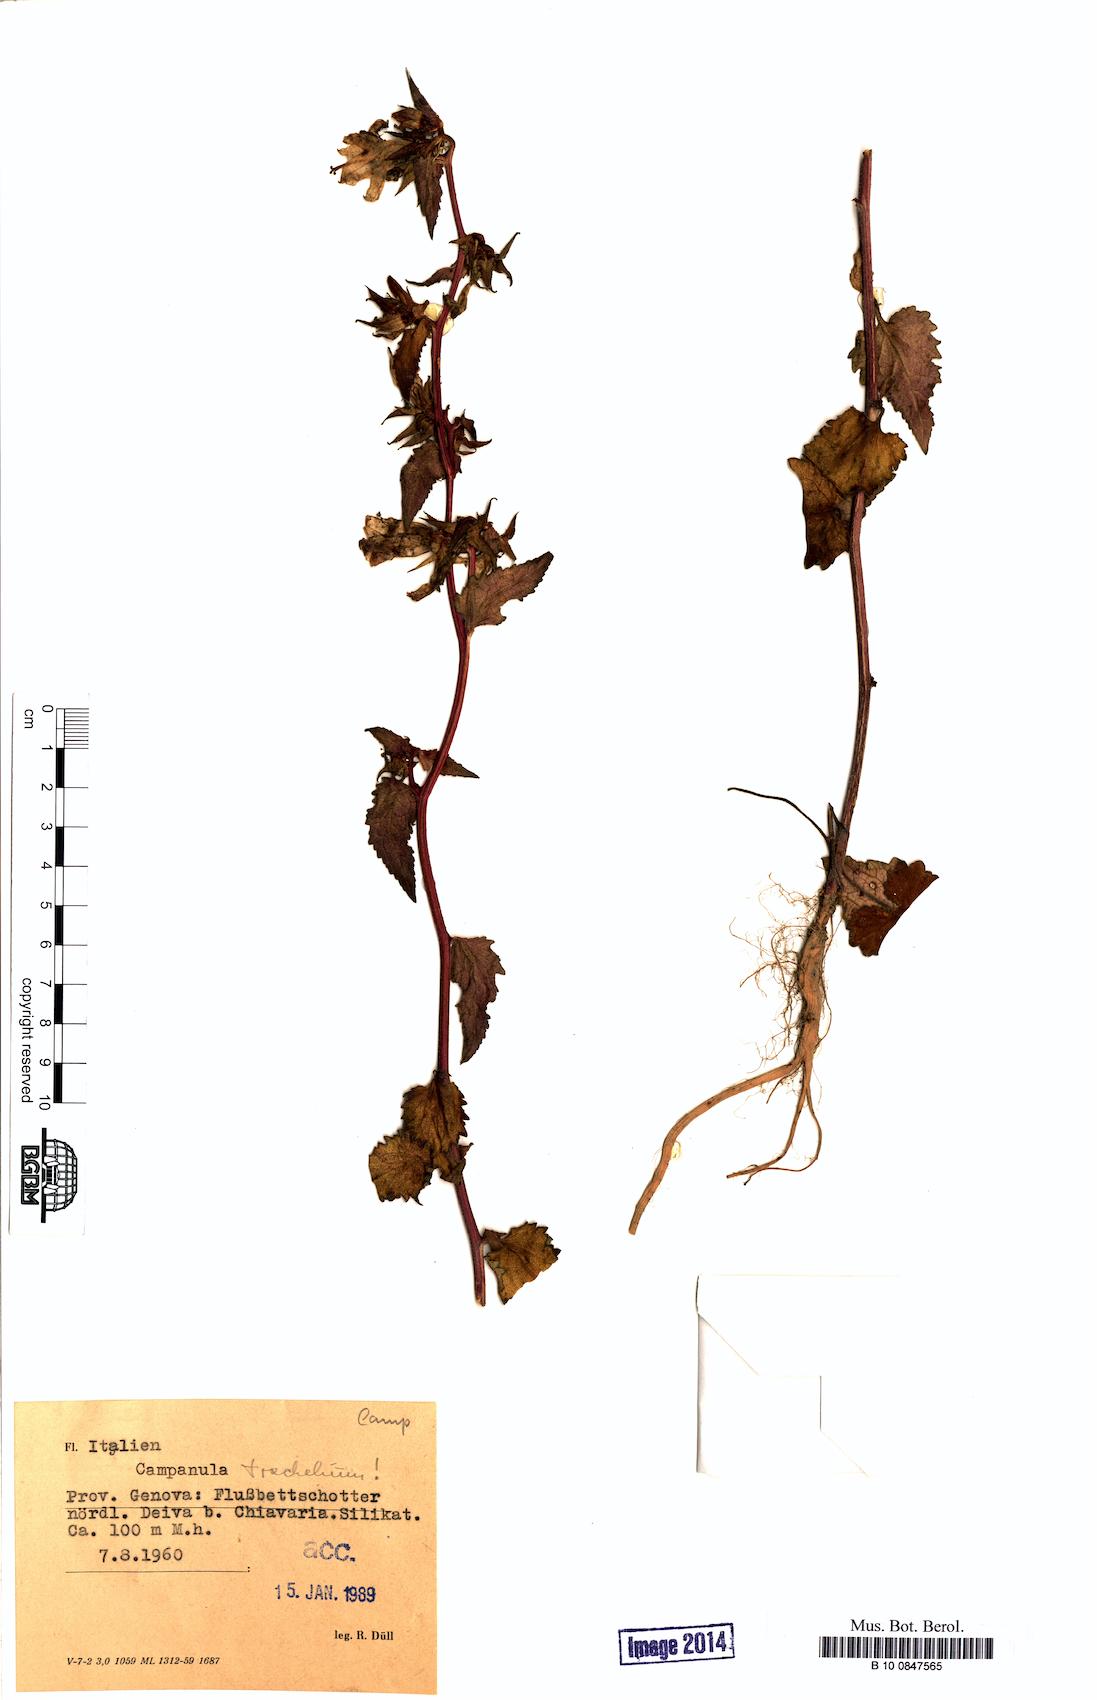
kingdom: Plantae
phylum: Tracheophyta
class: Magnoliopsida
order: Asterales
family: Campanulaceae
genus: Campanula
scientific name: Campanula trachelium
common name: Nettle-leaved bellflower
